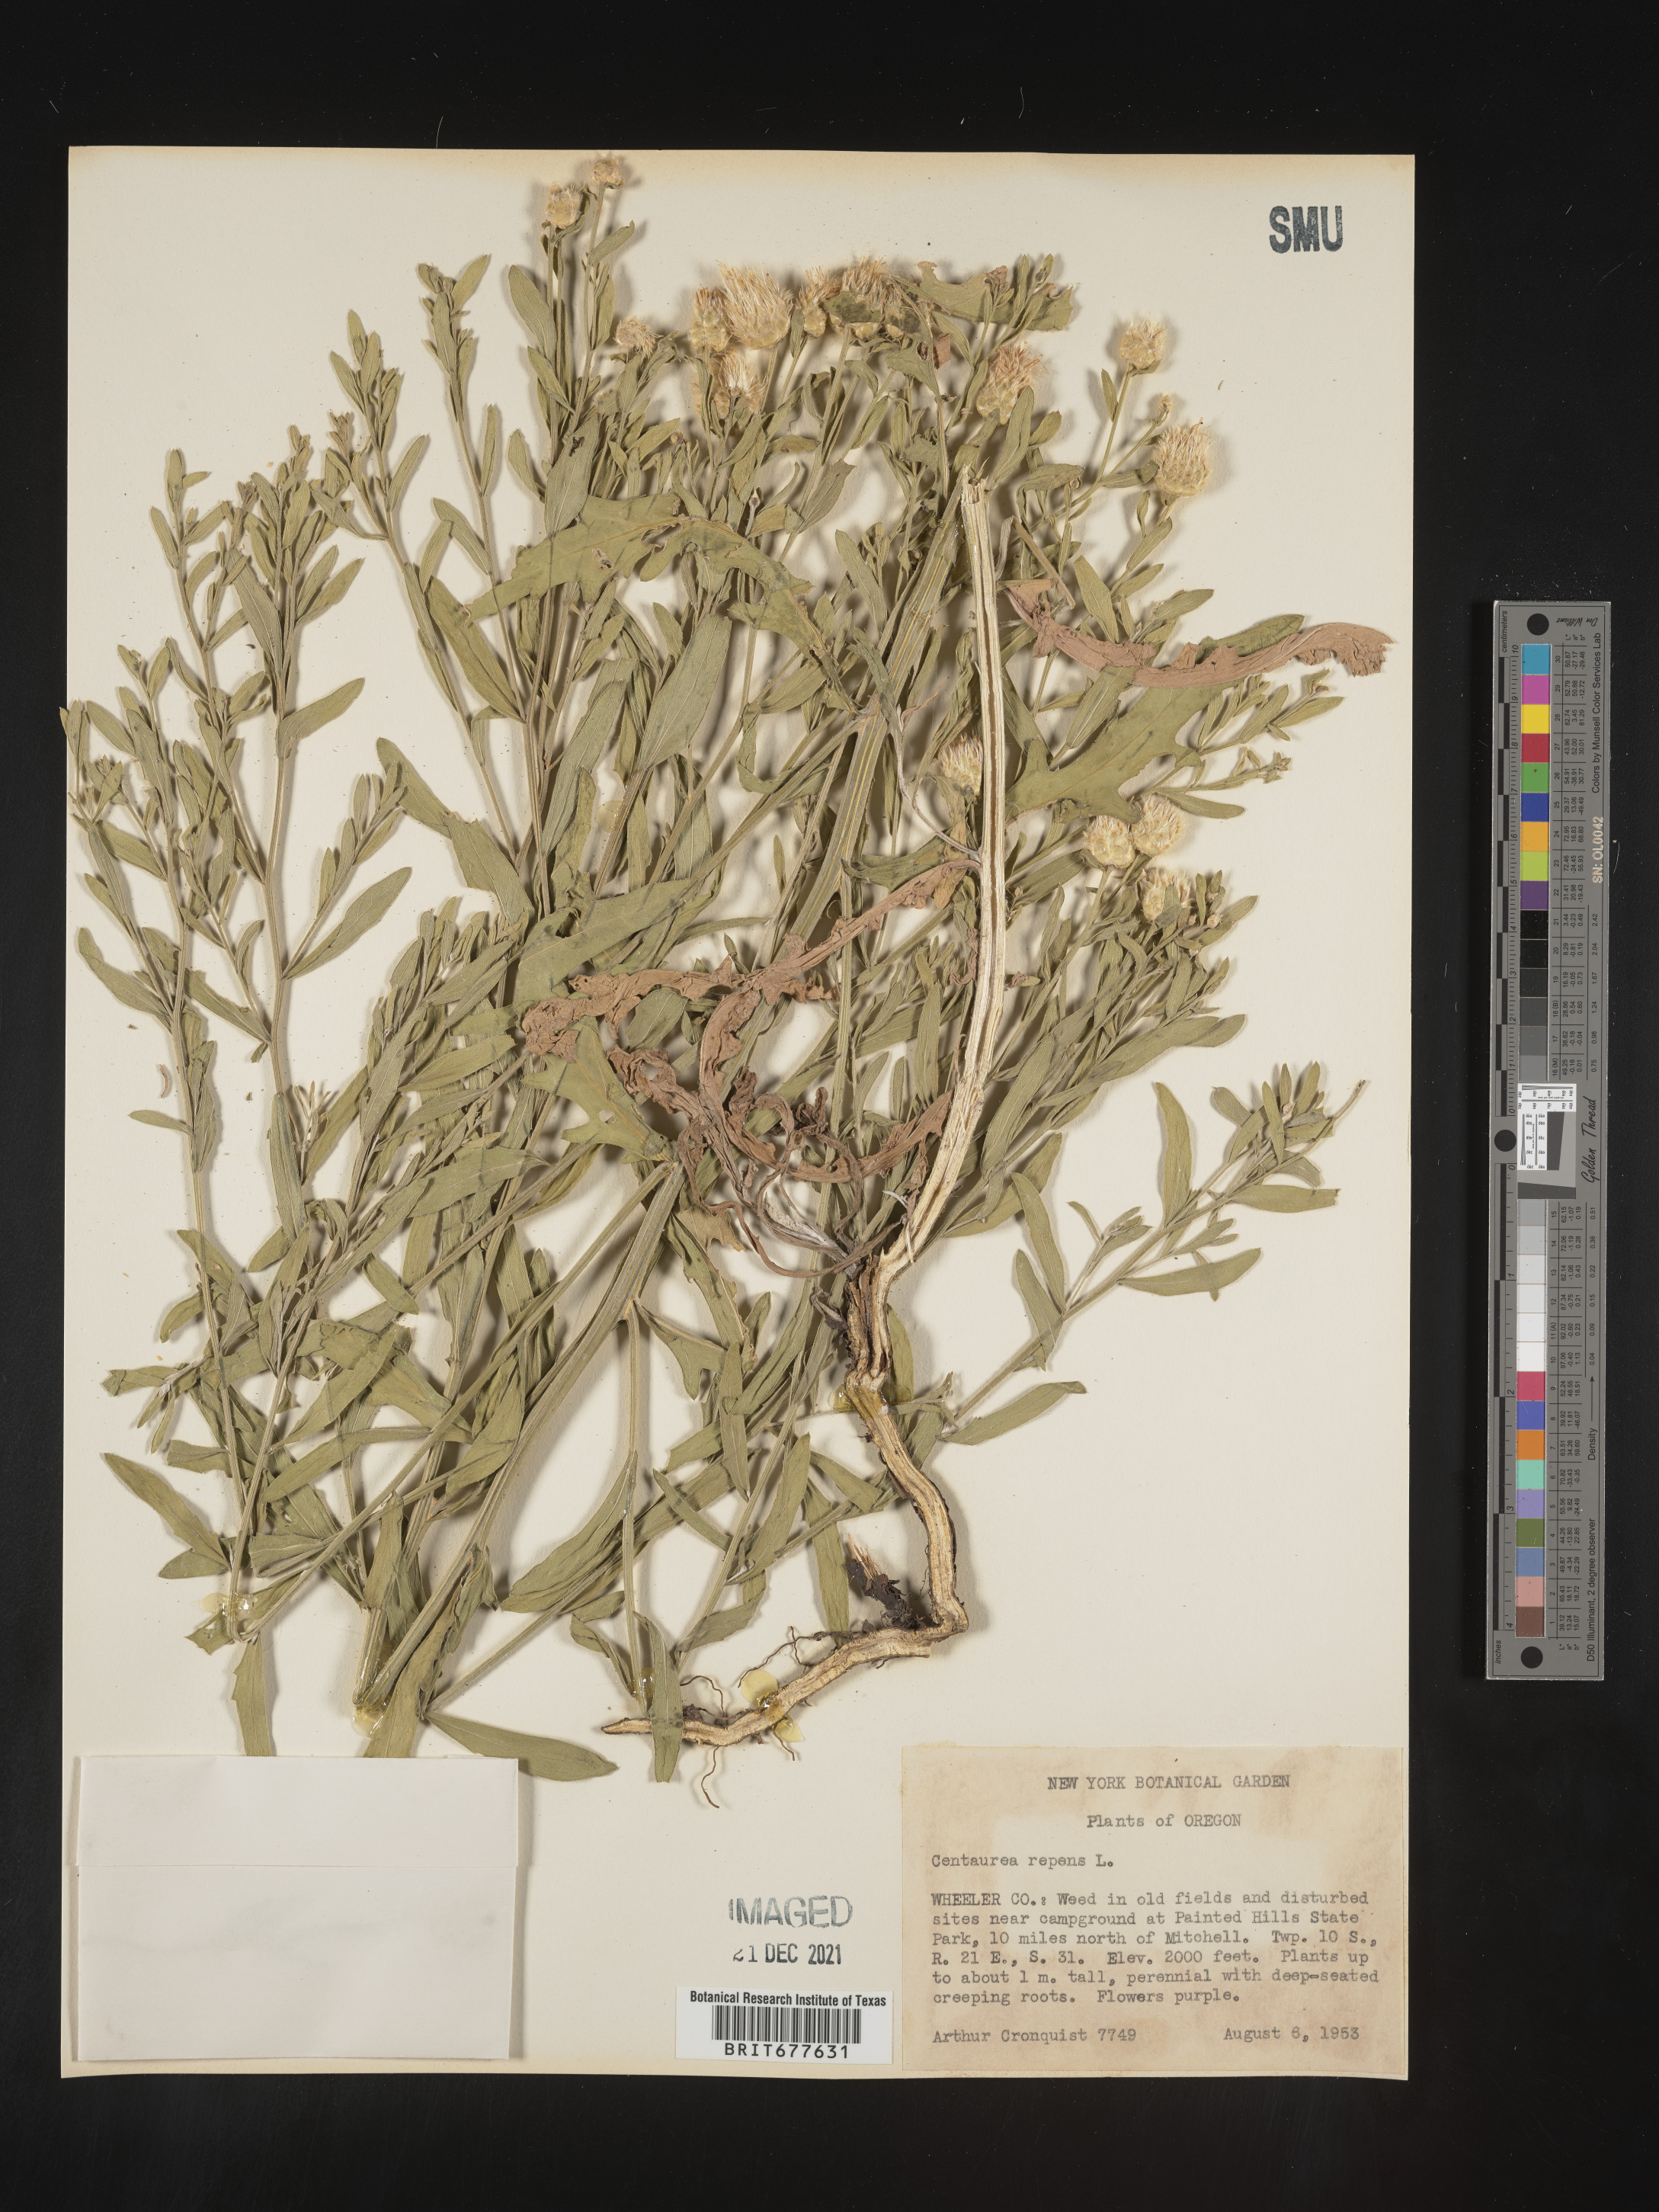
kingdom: Plantae
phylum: Tracheophyta
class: Magnoliopsida
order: Asterales
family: Asteraceae
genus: Leuzea
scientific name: Leuzea repens
